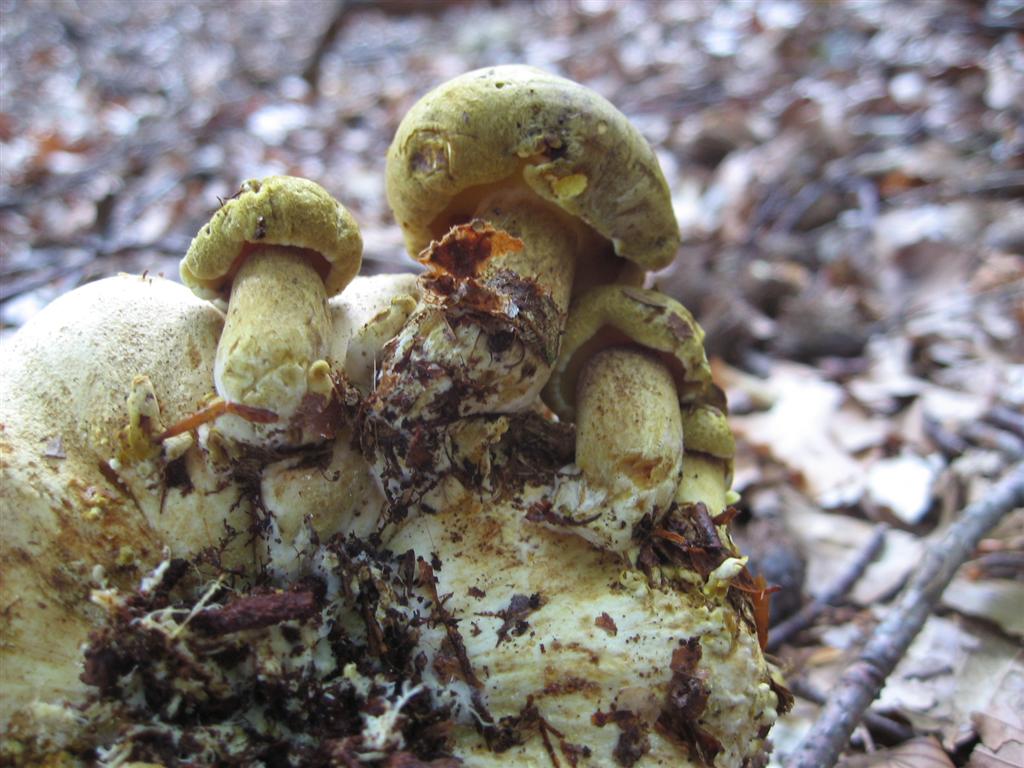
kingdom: Fungi
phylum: Basidiomycota
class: Agaricomycetes
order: Boletales
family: Boletaceae
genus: Pseudoboletus
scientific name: Pseudoboletus parasiticus
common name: snyltende rørhat
